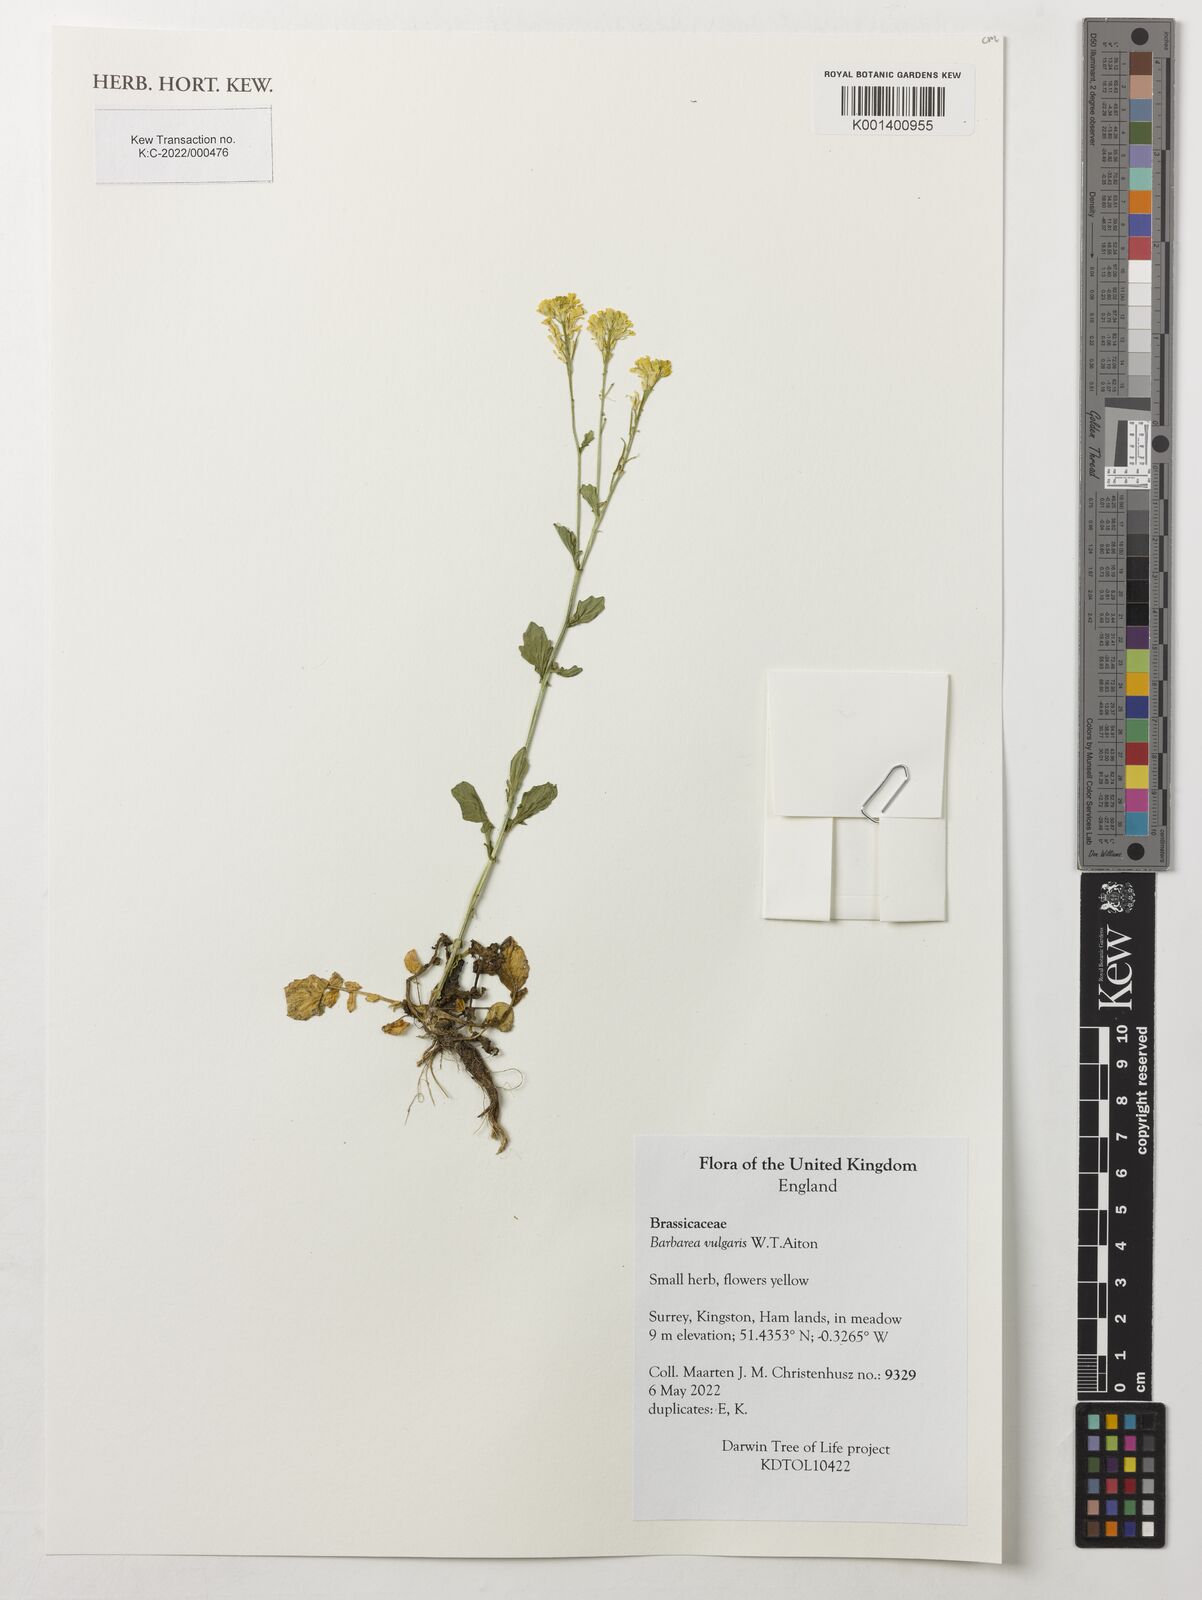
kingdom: Plantae
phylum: Tracheophyta
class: Magnoliopsida
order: Brassicales
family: Brassicaceae
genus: Barbarea
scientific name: Barbarea vulgaris
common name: Cressy-greens
